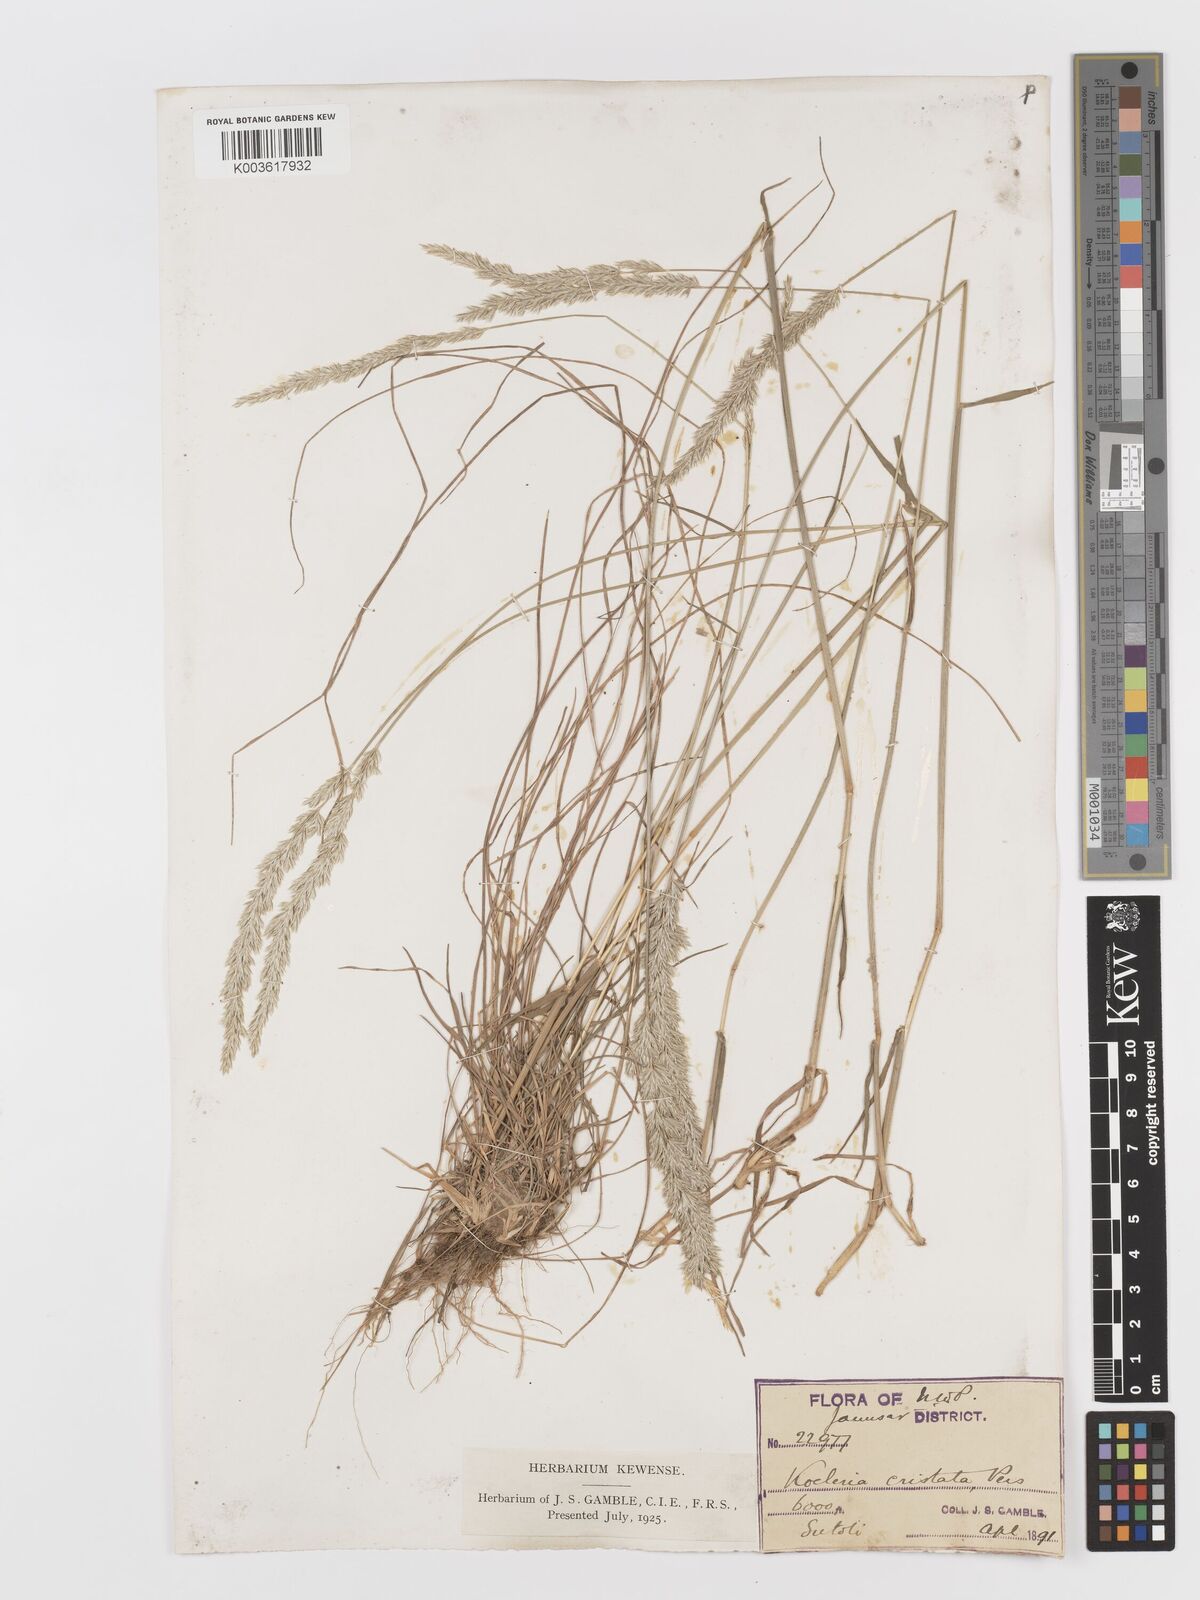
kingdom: Plantae
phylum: Tracheophyta
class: Liliopsida
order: Poales
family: Poaceae
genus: Koeleria
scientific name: Koeleria
